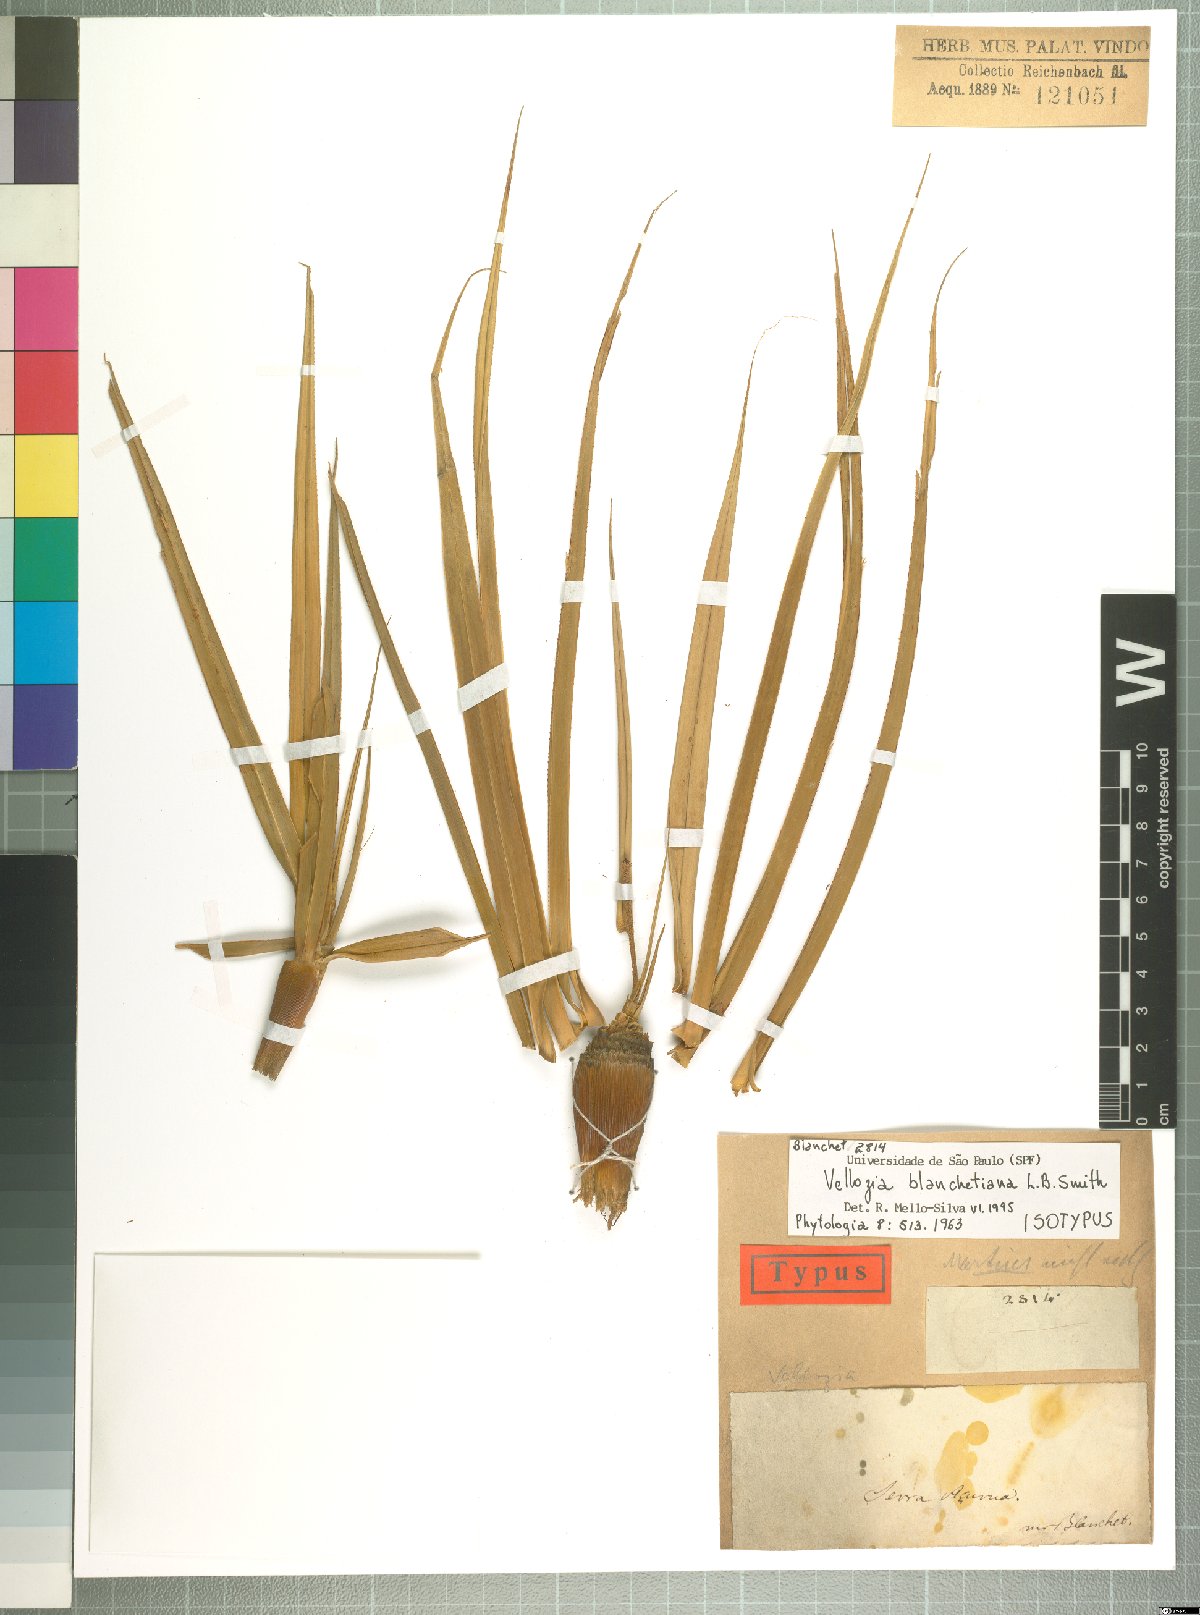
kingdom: Plantae
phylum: Tracheophyta
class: Liliopsida
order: Pandanales
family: Velloziaceae
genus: Vellozia
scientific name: Vellozia blanchetiana
